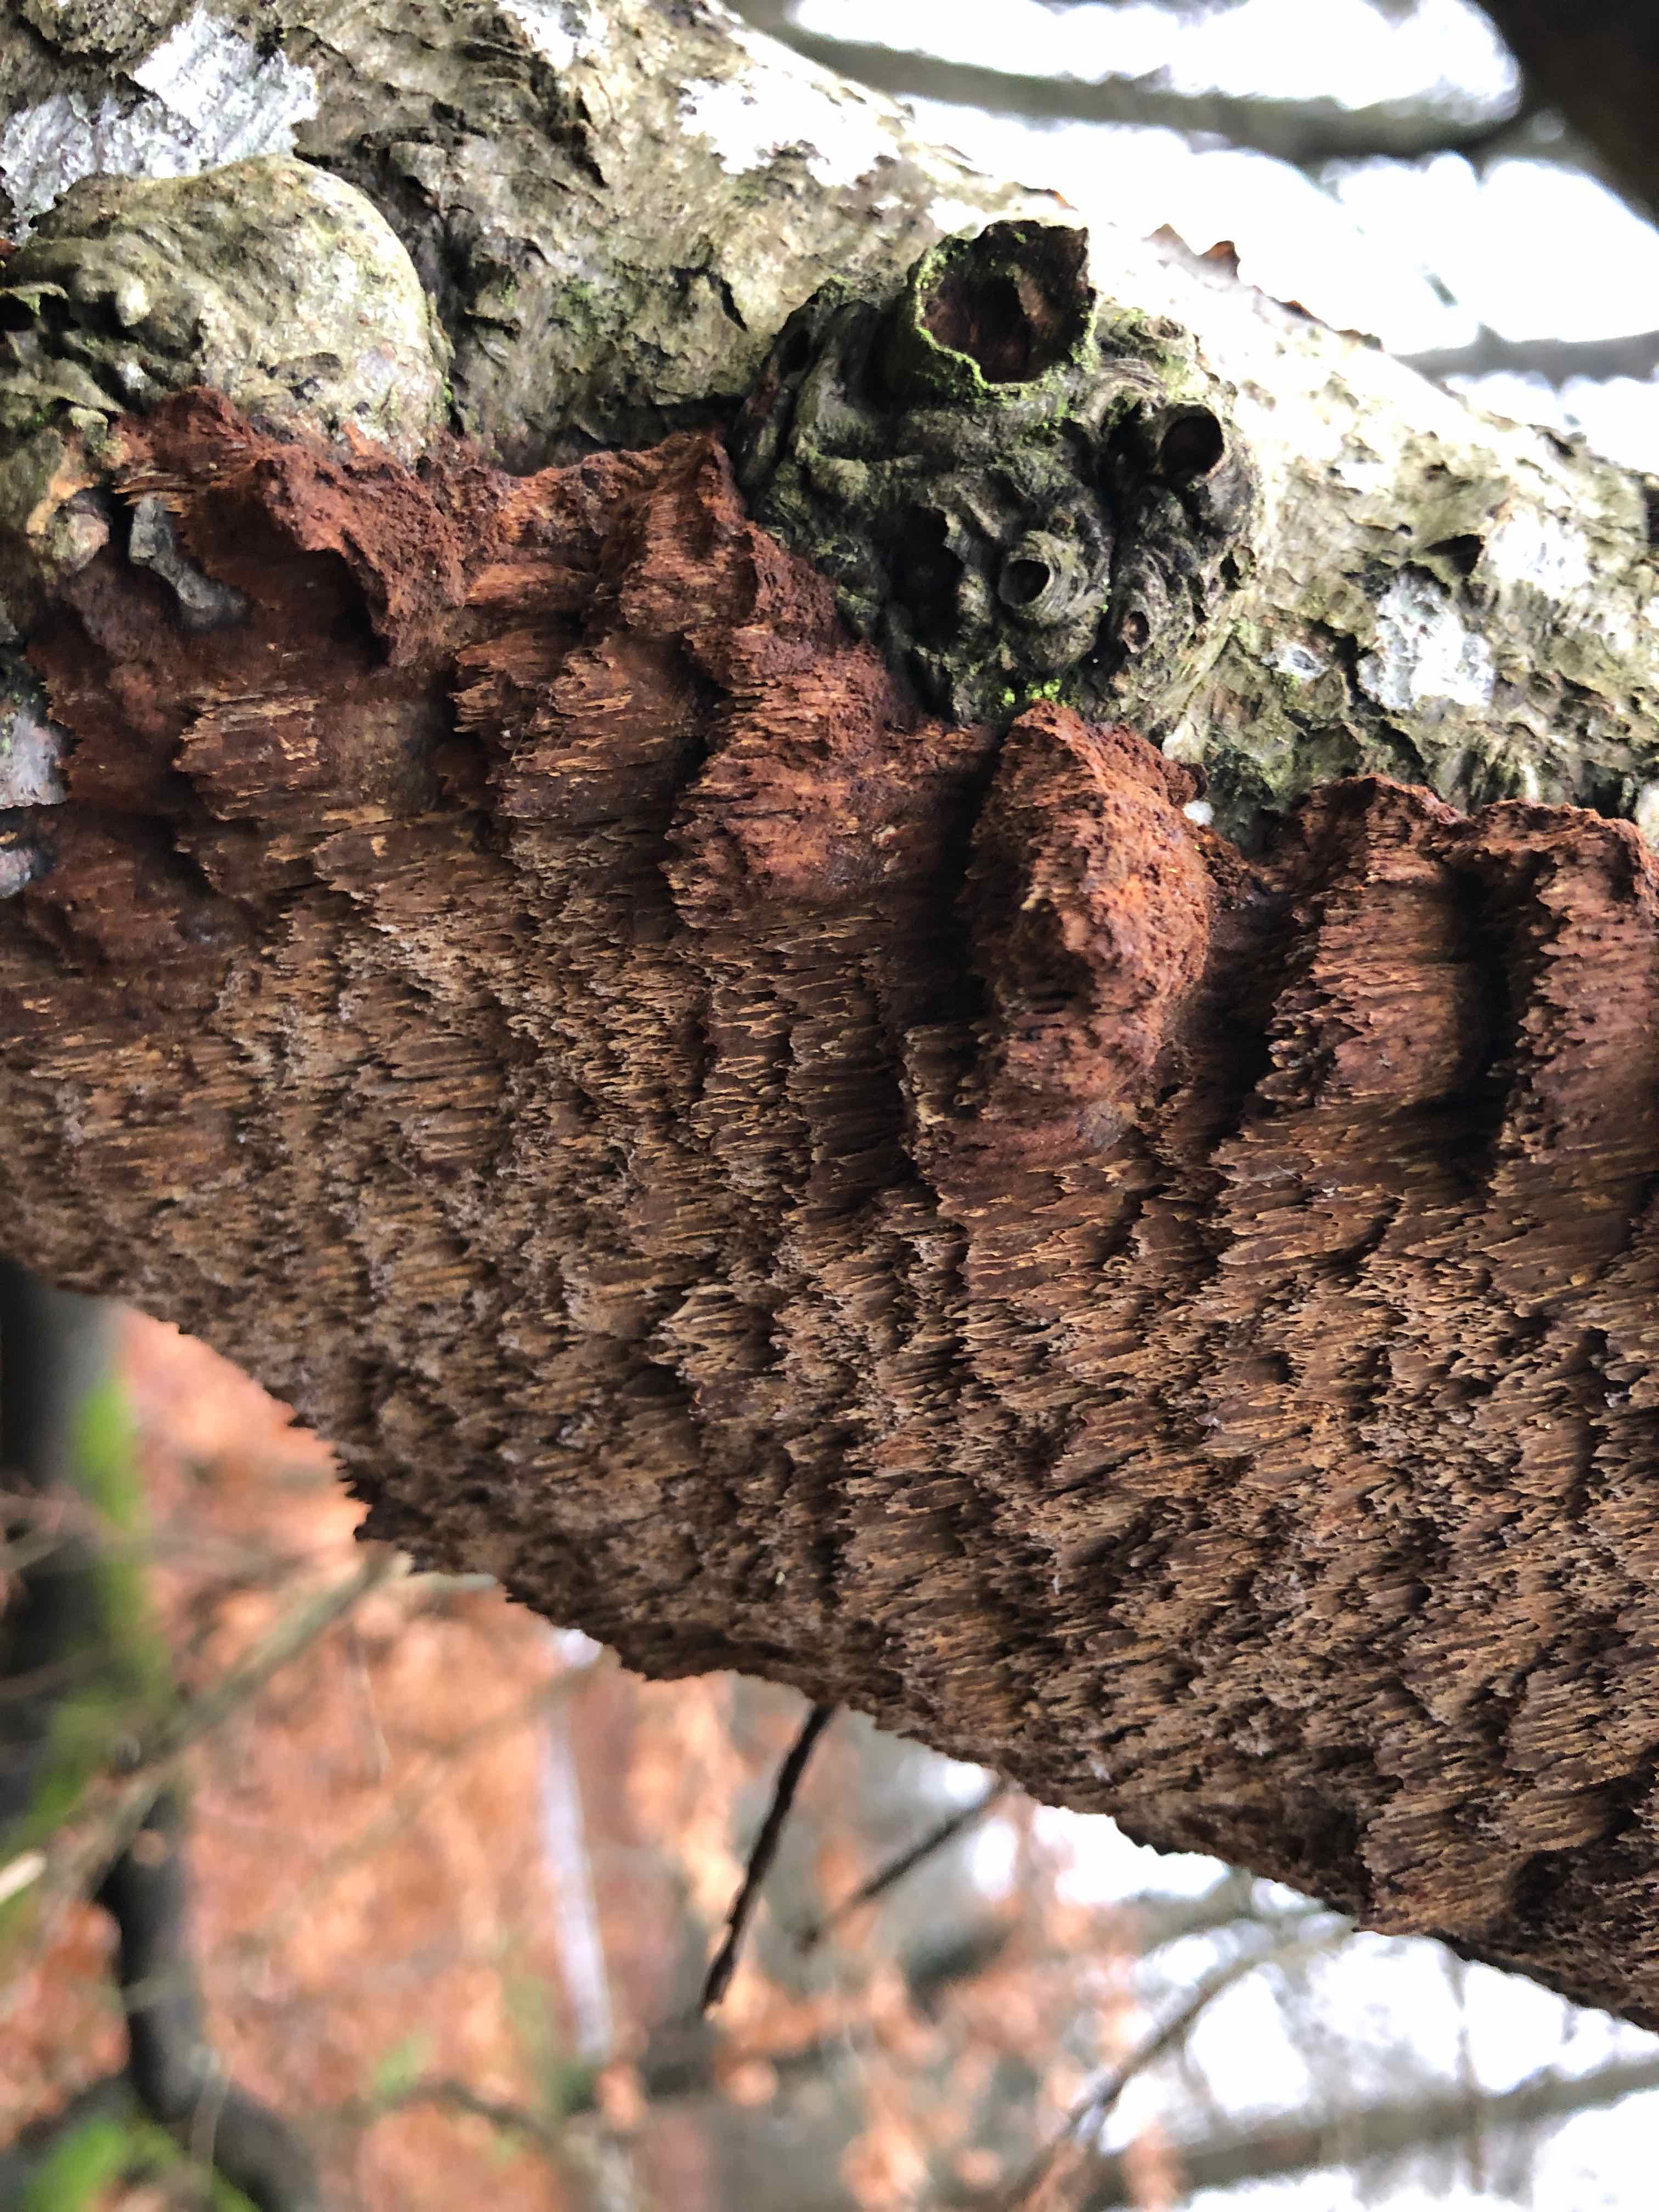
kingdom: Fungi
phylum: Basidiomycota
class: Agaricomycetes
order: Hymenochaetales
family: Hymenochaetaceae
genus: Mensularia
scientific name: Mensularia nodulosa
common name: bøge-spejlporesvamp
